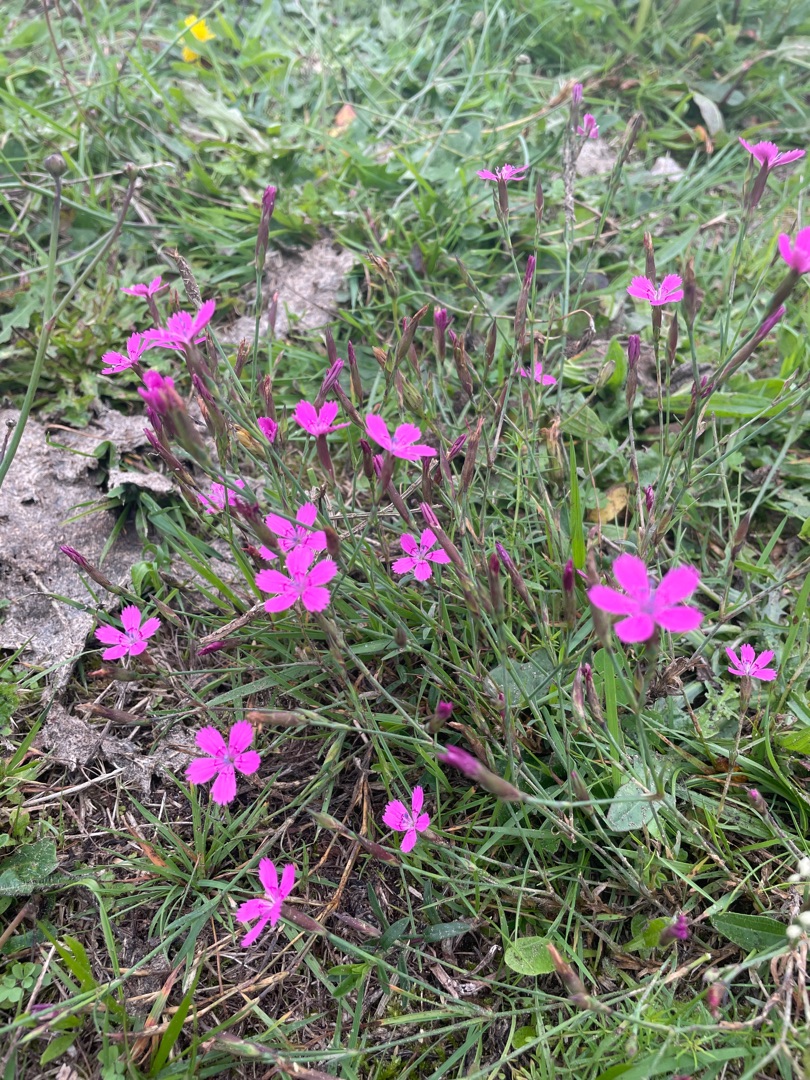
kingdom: Plantae
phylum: Tracheophyta
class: Magnoliopsida
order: Caryophyllales
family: Caryophyllaceae
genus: Dianthus
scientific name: Dianthus deltoides
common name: Bakke-nellike
